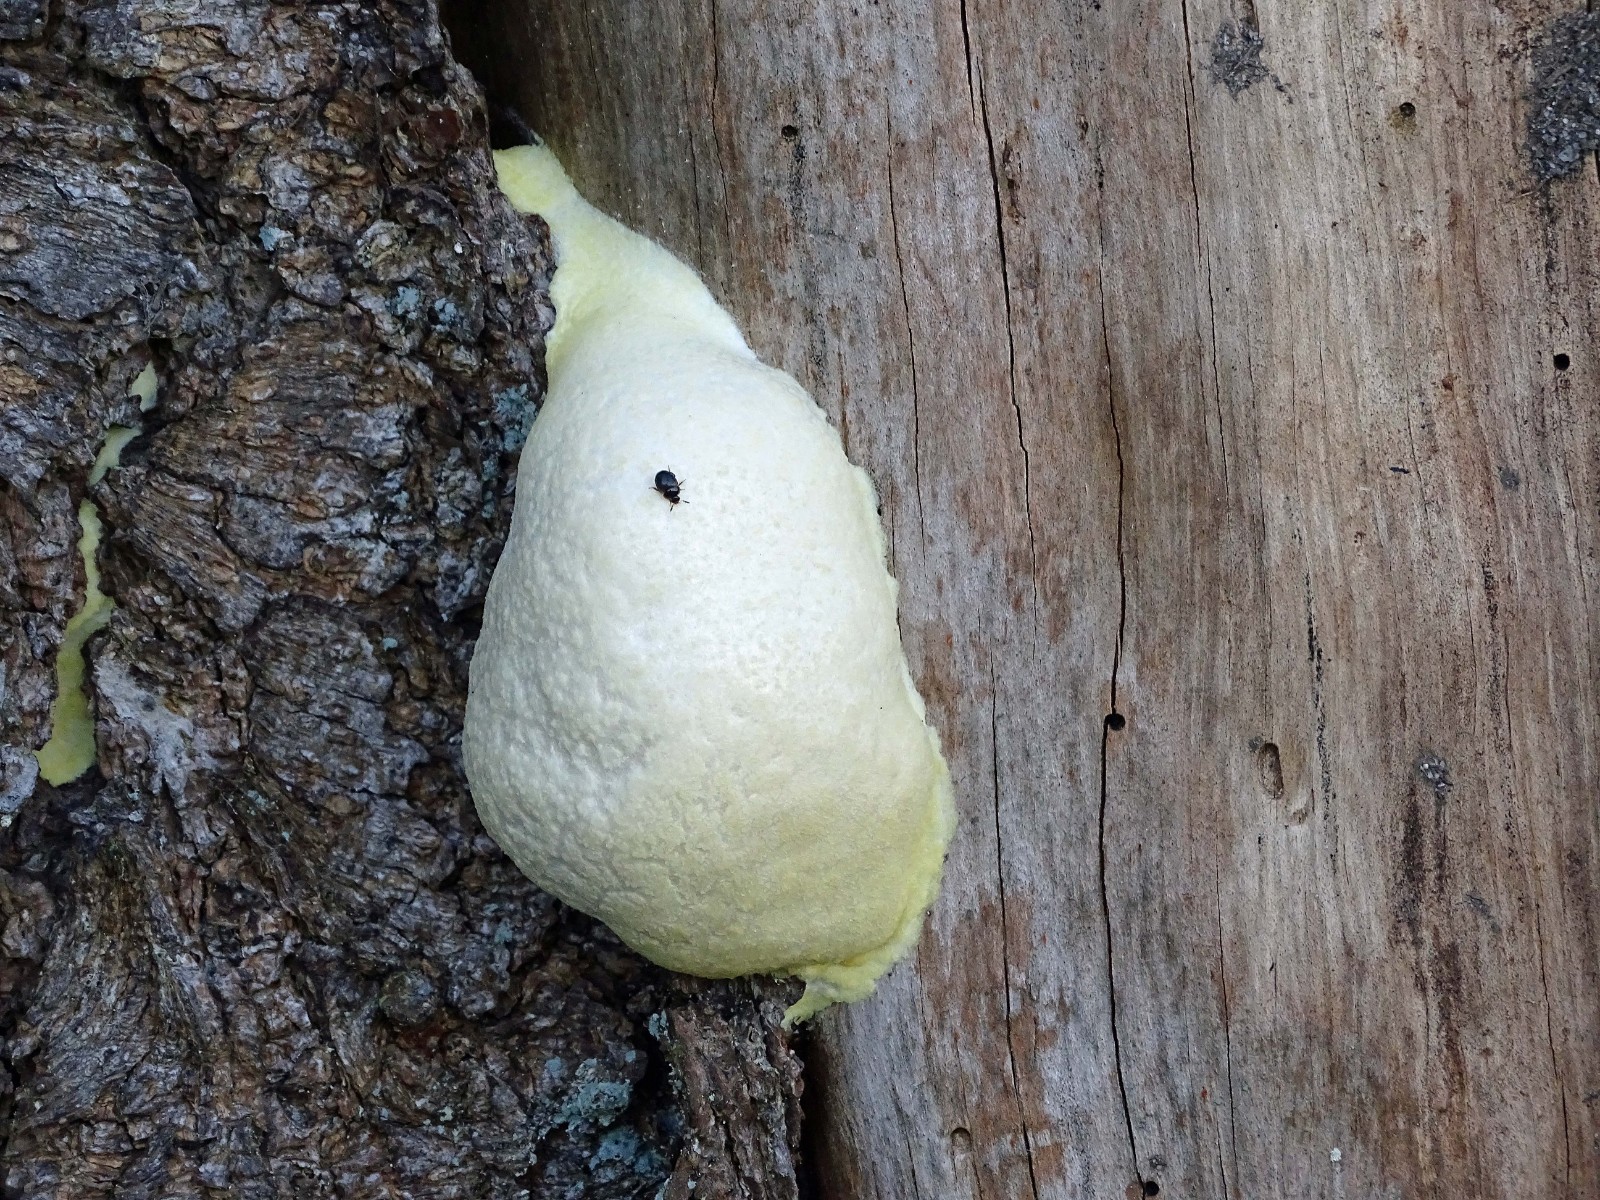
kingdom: Protozoa
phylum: Mycetozoa
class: Myxomycetes
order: Cribrariales
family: Tubiferaceae
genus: Reticularia
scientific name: Reticularia lycoperdon
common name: skinnende støvpude
